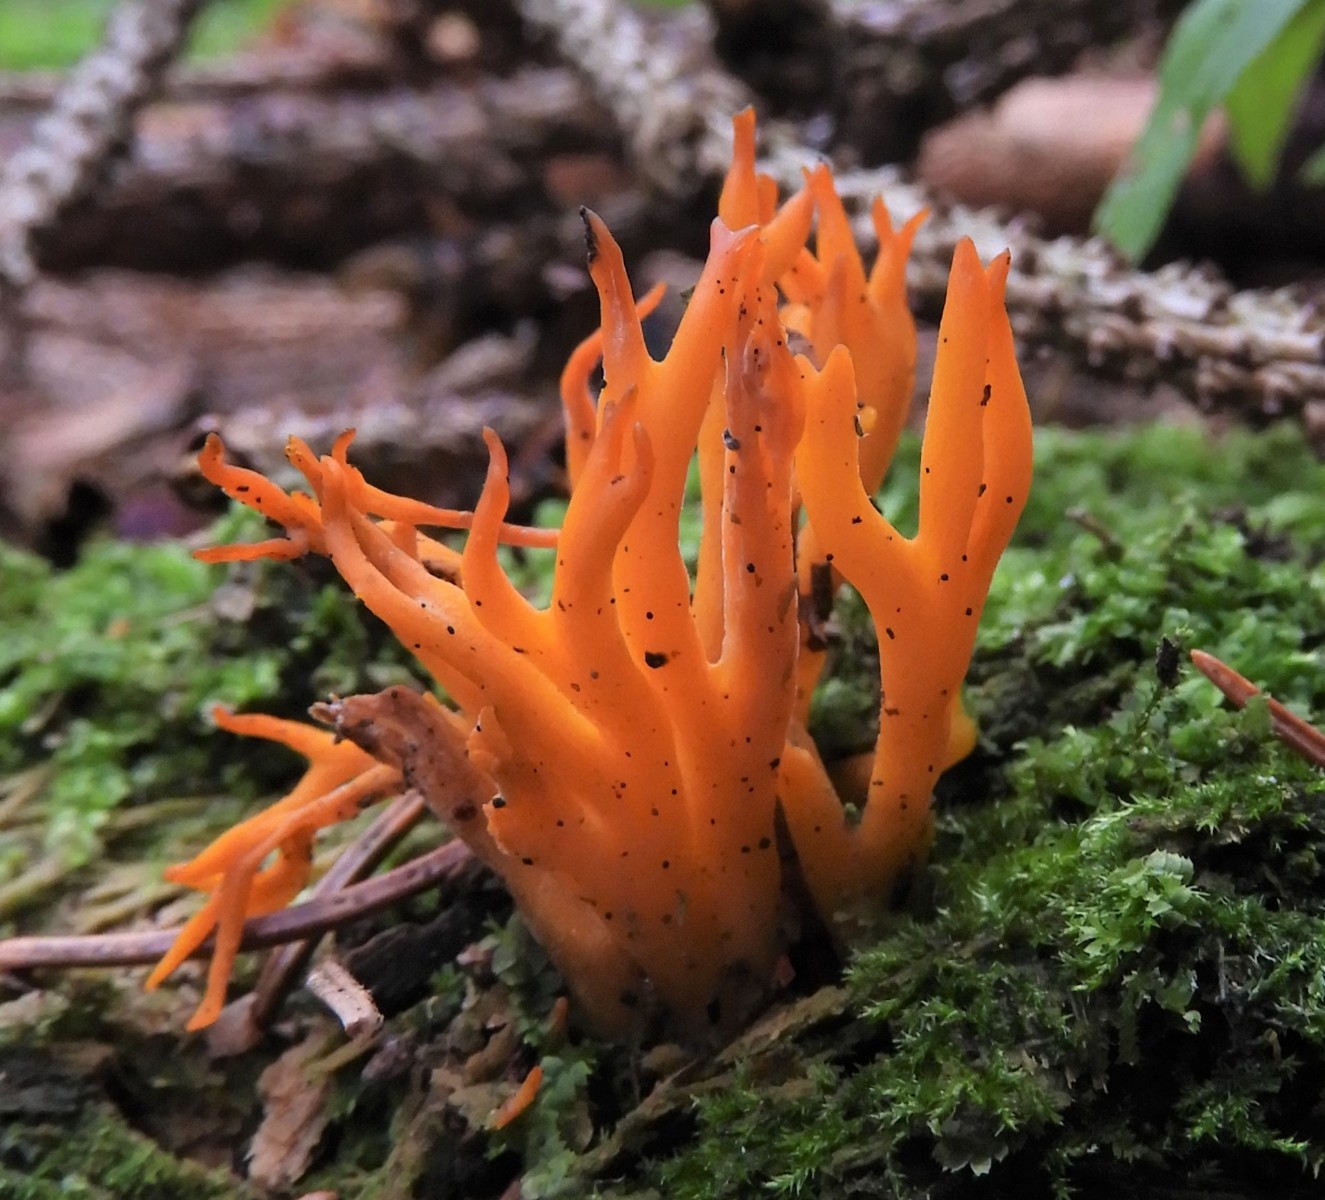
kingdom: Fungi
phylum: Basidiomycota
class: Dacrymycetes
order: Dacrymycetales
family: Dacrymycetaceae
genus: Calocera
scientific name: Calocera viscosa
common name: almindelig guldgaffel
